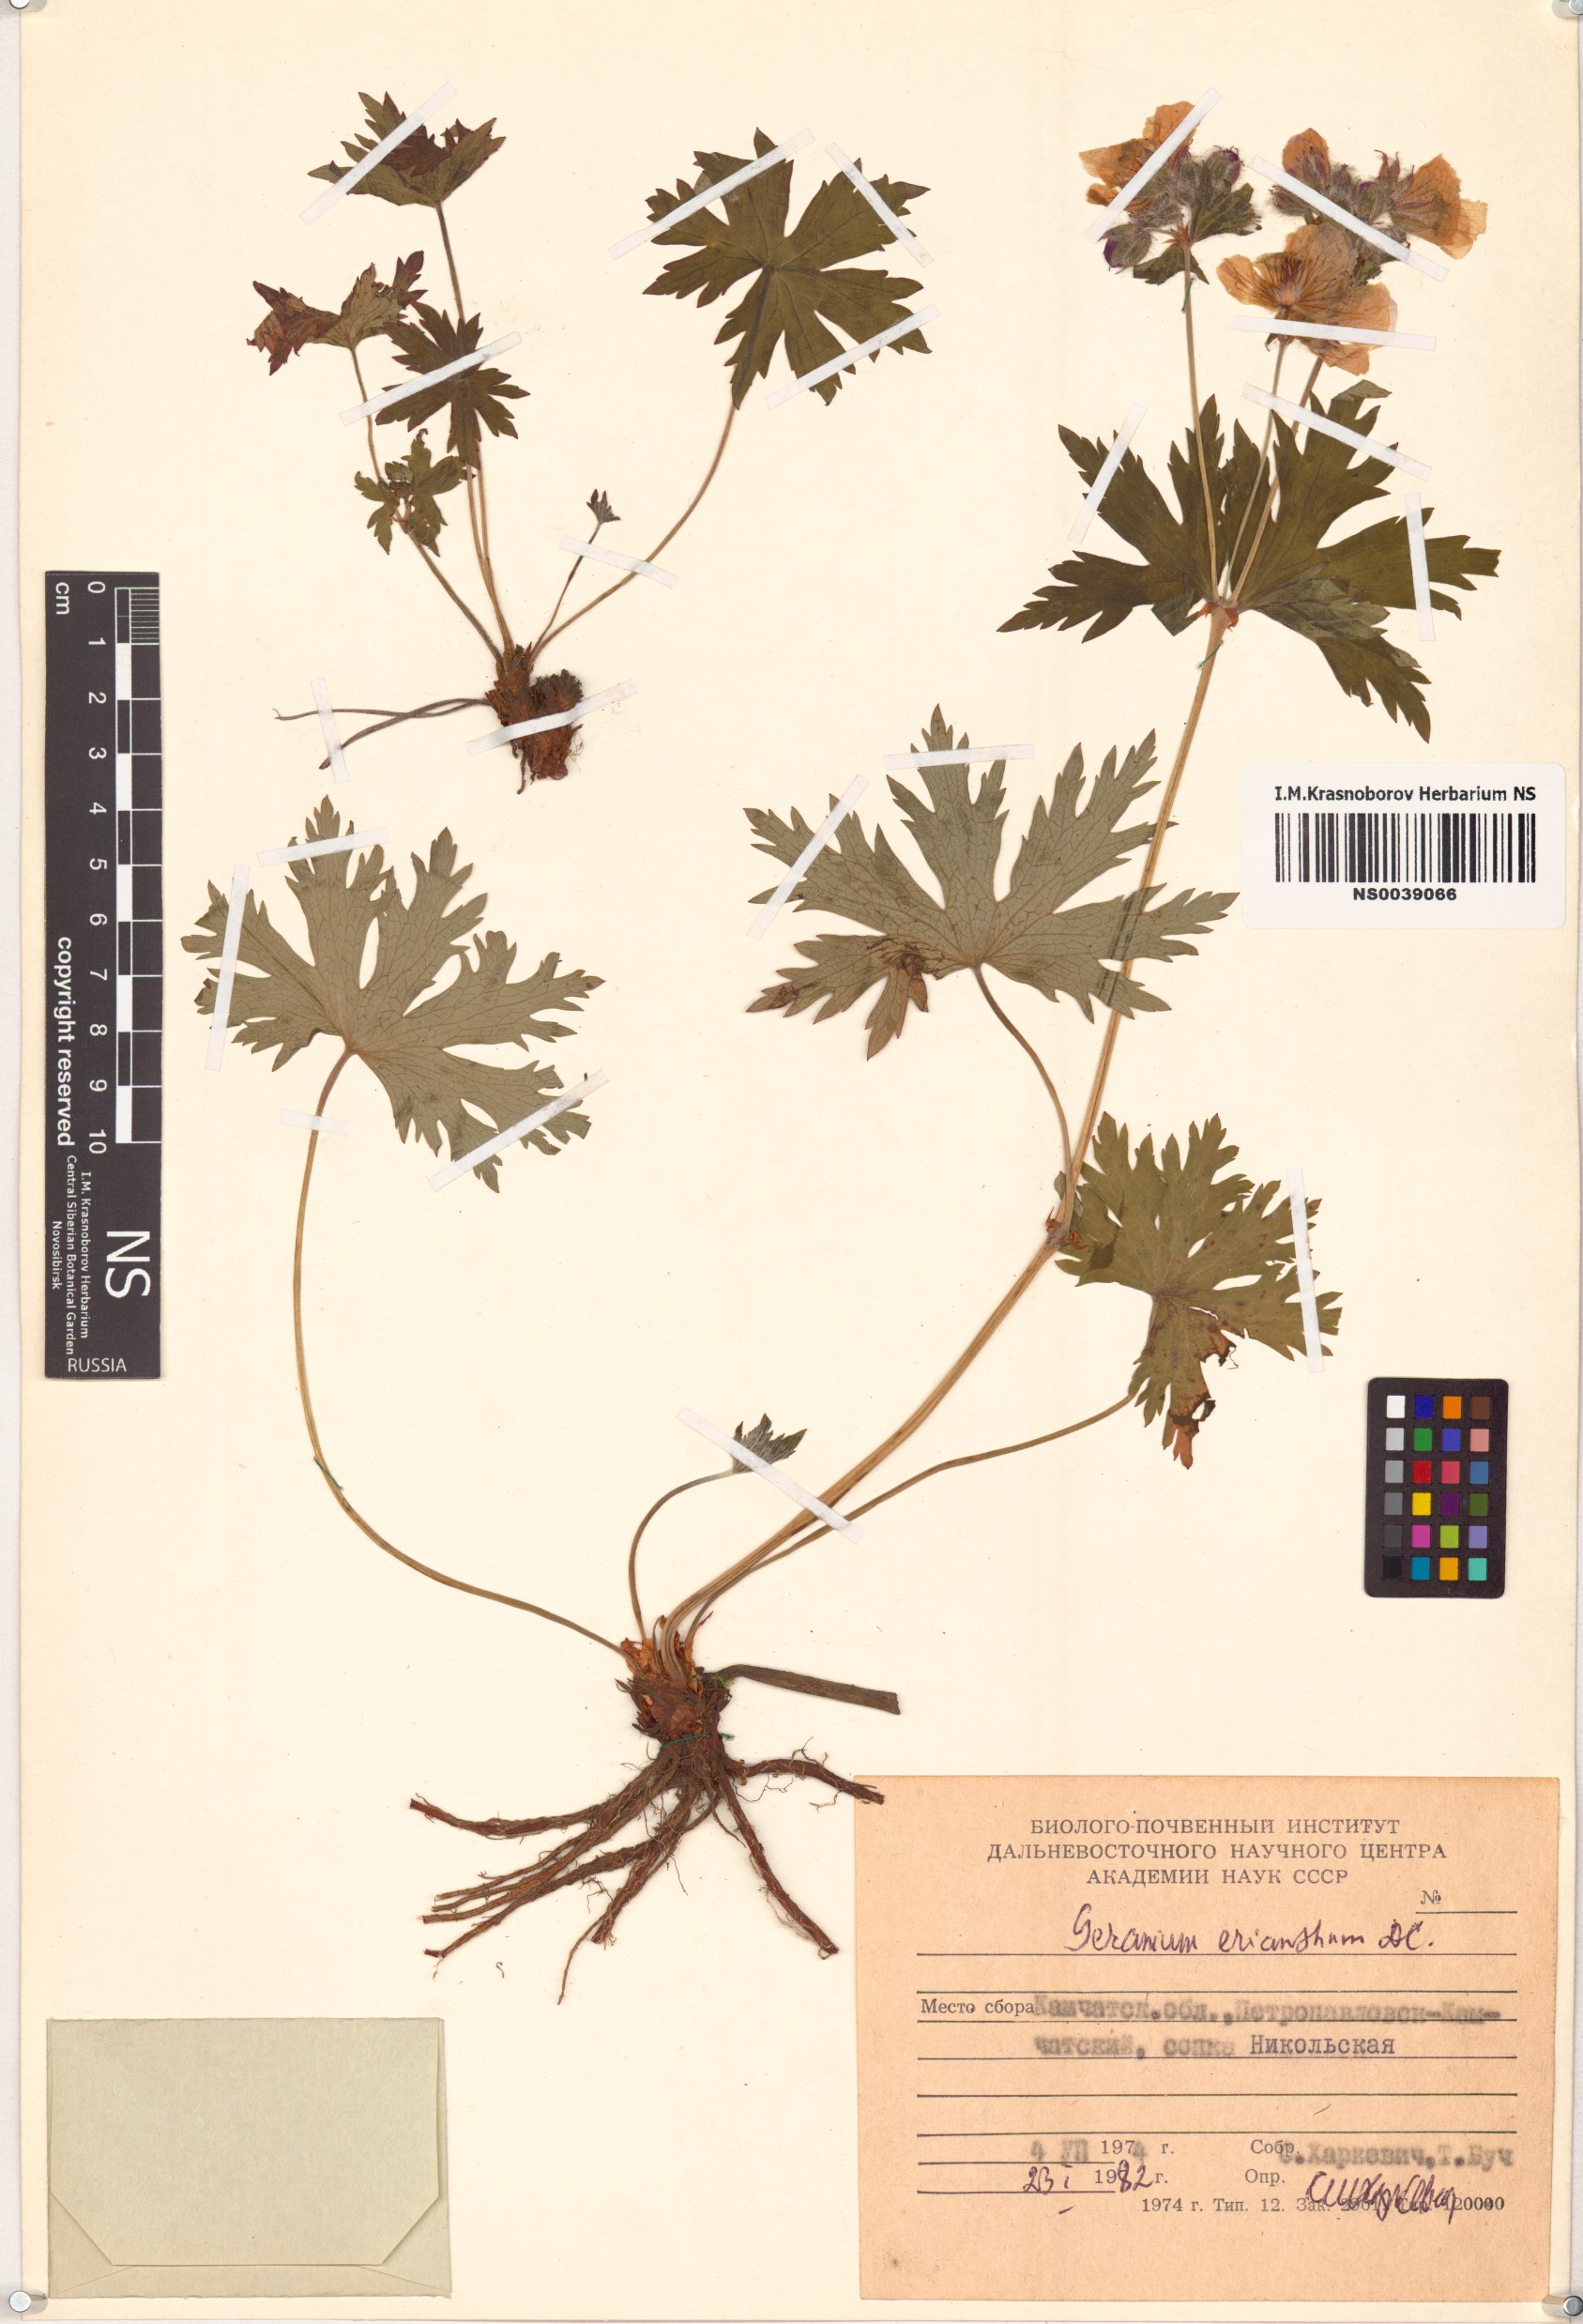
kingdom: Plantae
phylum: Tracheophyta
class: Magnoliopsida
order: Geraniales
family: Geraniaceae
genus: Geranium
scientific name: Geranium erianthum
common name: Northern crane's-bill
